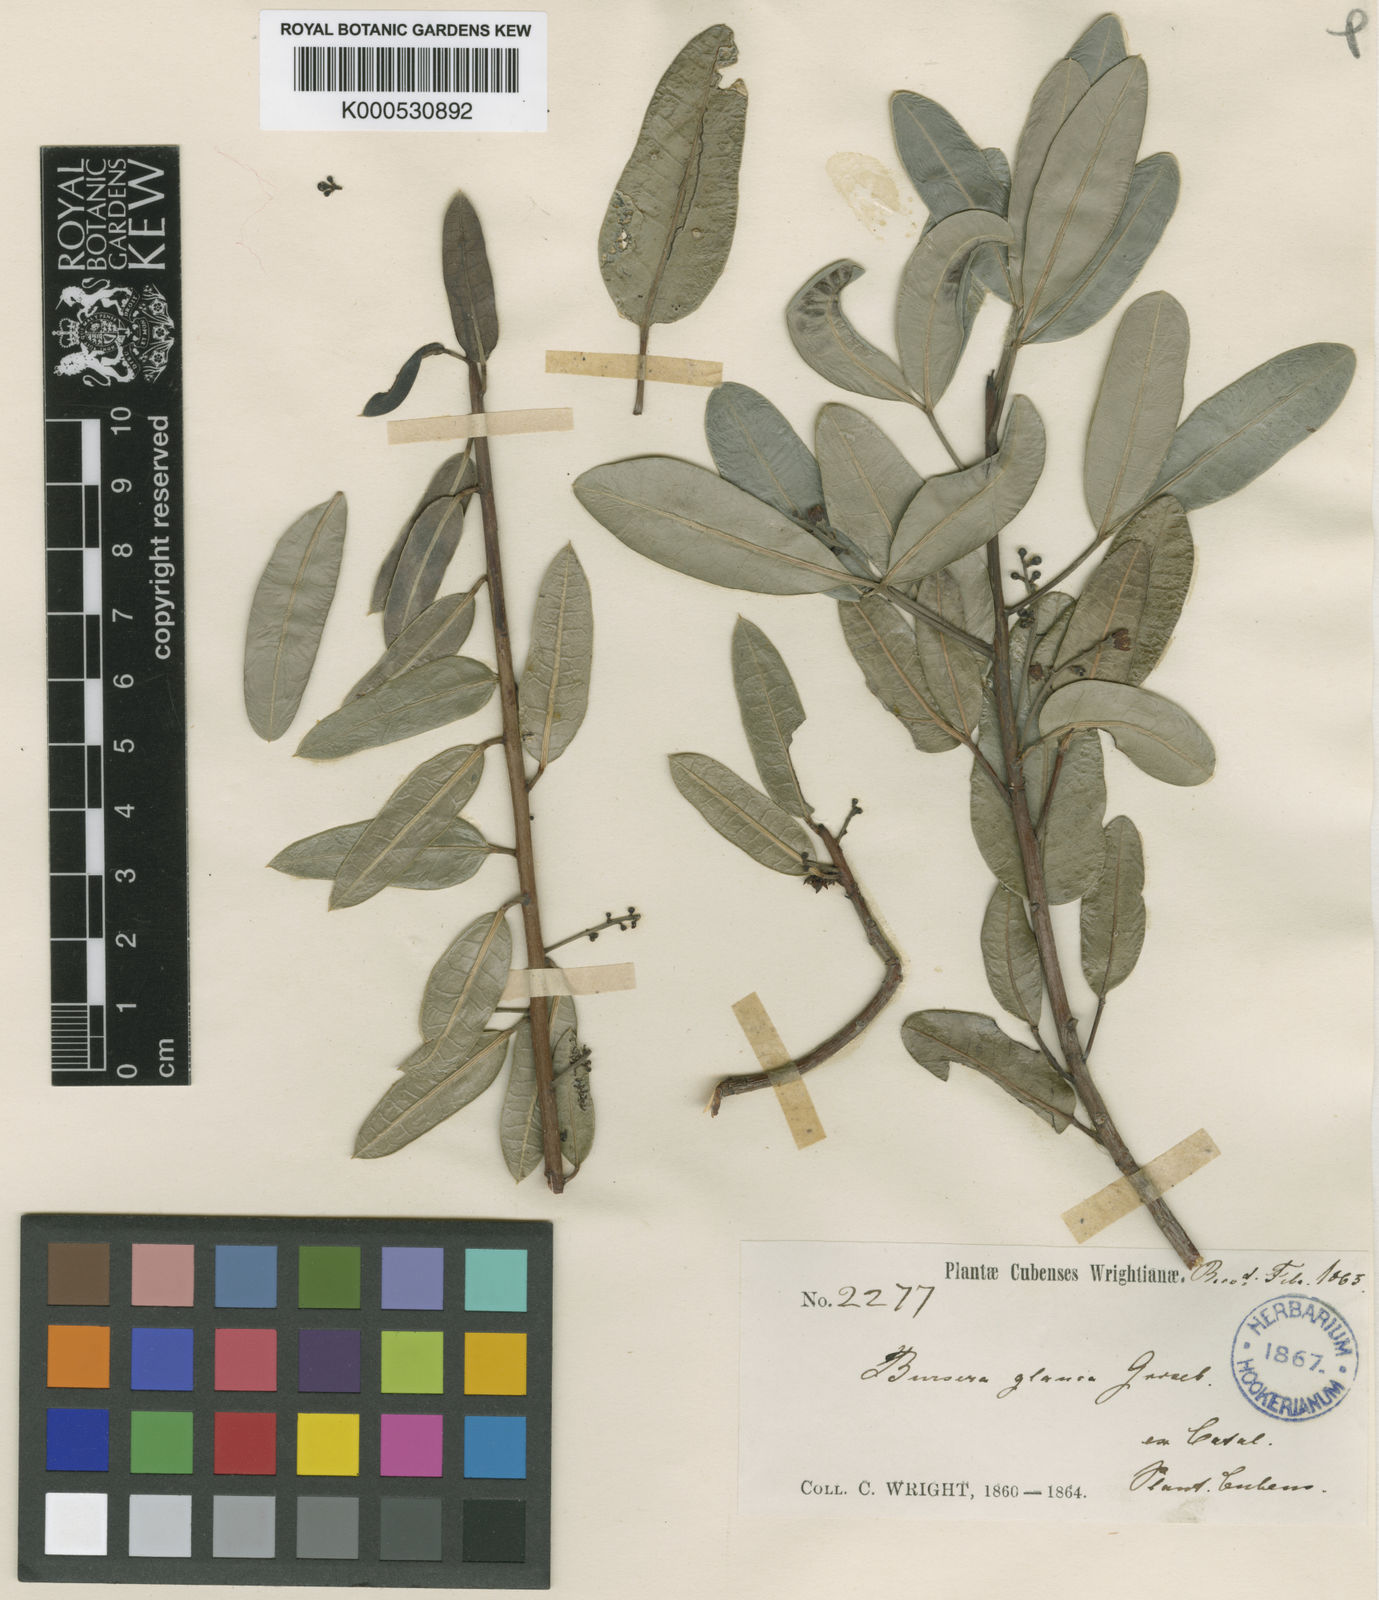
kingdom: Plantae
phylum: Tracheophyta
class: Magnoliopsida
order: Sapindales
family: Burseraceae
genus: Bursera
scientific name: Bursera glauca
